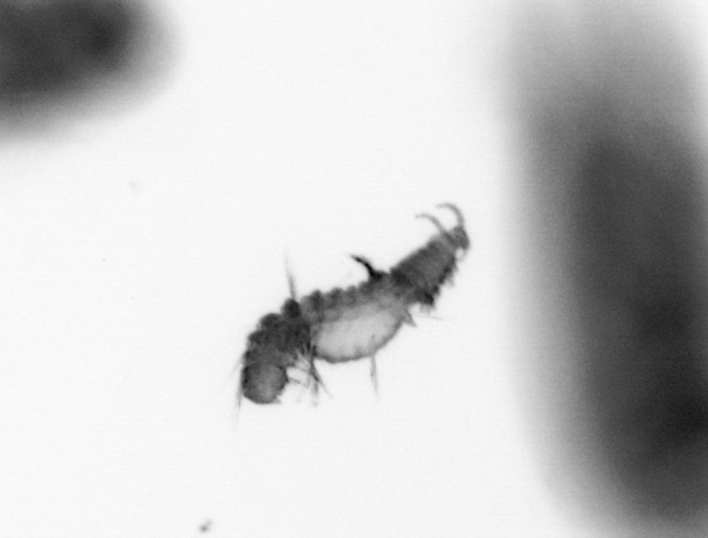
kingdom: Animalia
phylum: Annelida
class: Polychaeta
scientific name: Polychaeta
